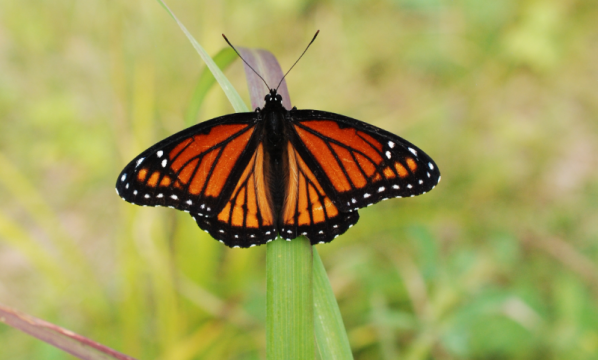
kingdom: Animalia
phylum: Arthropoda
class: Insecta
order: Lepidoptera
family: Nymphalidae
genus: Limenitis
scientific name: Limenitis archippus
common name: Viceroy
